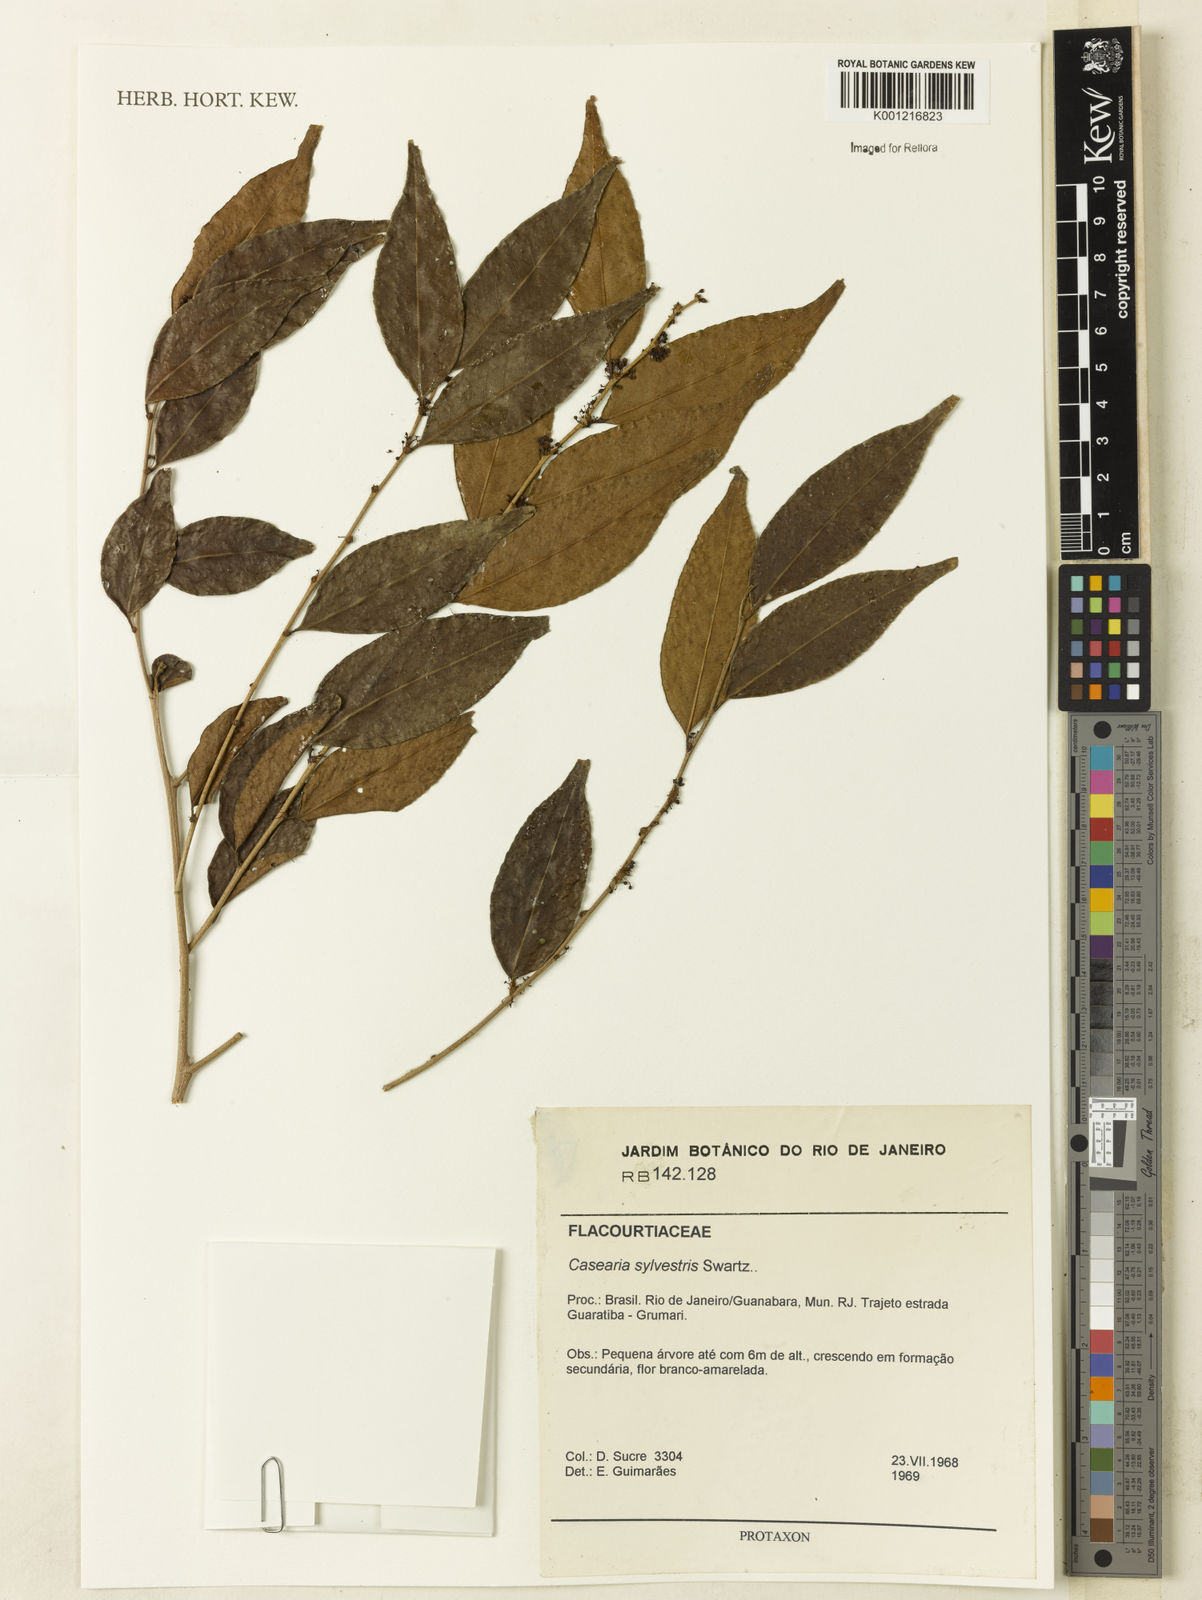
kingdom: Plantae
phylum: Tracheophyta
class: Magnoliopsida
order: Malpighiales
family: Salicaceae
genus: Casearia
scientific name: Casearia sylvestris
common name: Wild sage
